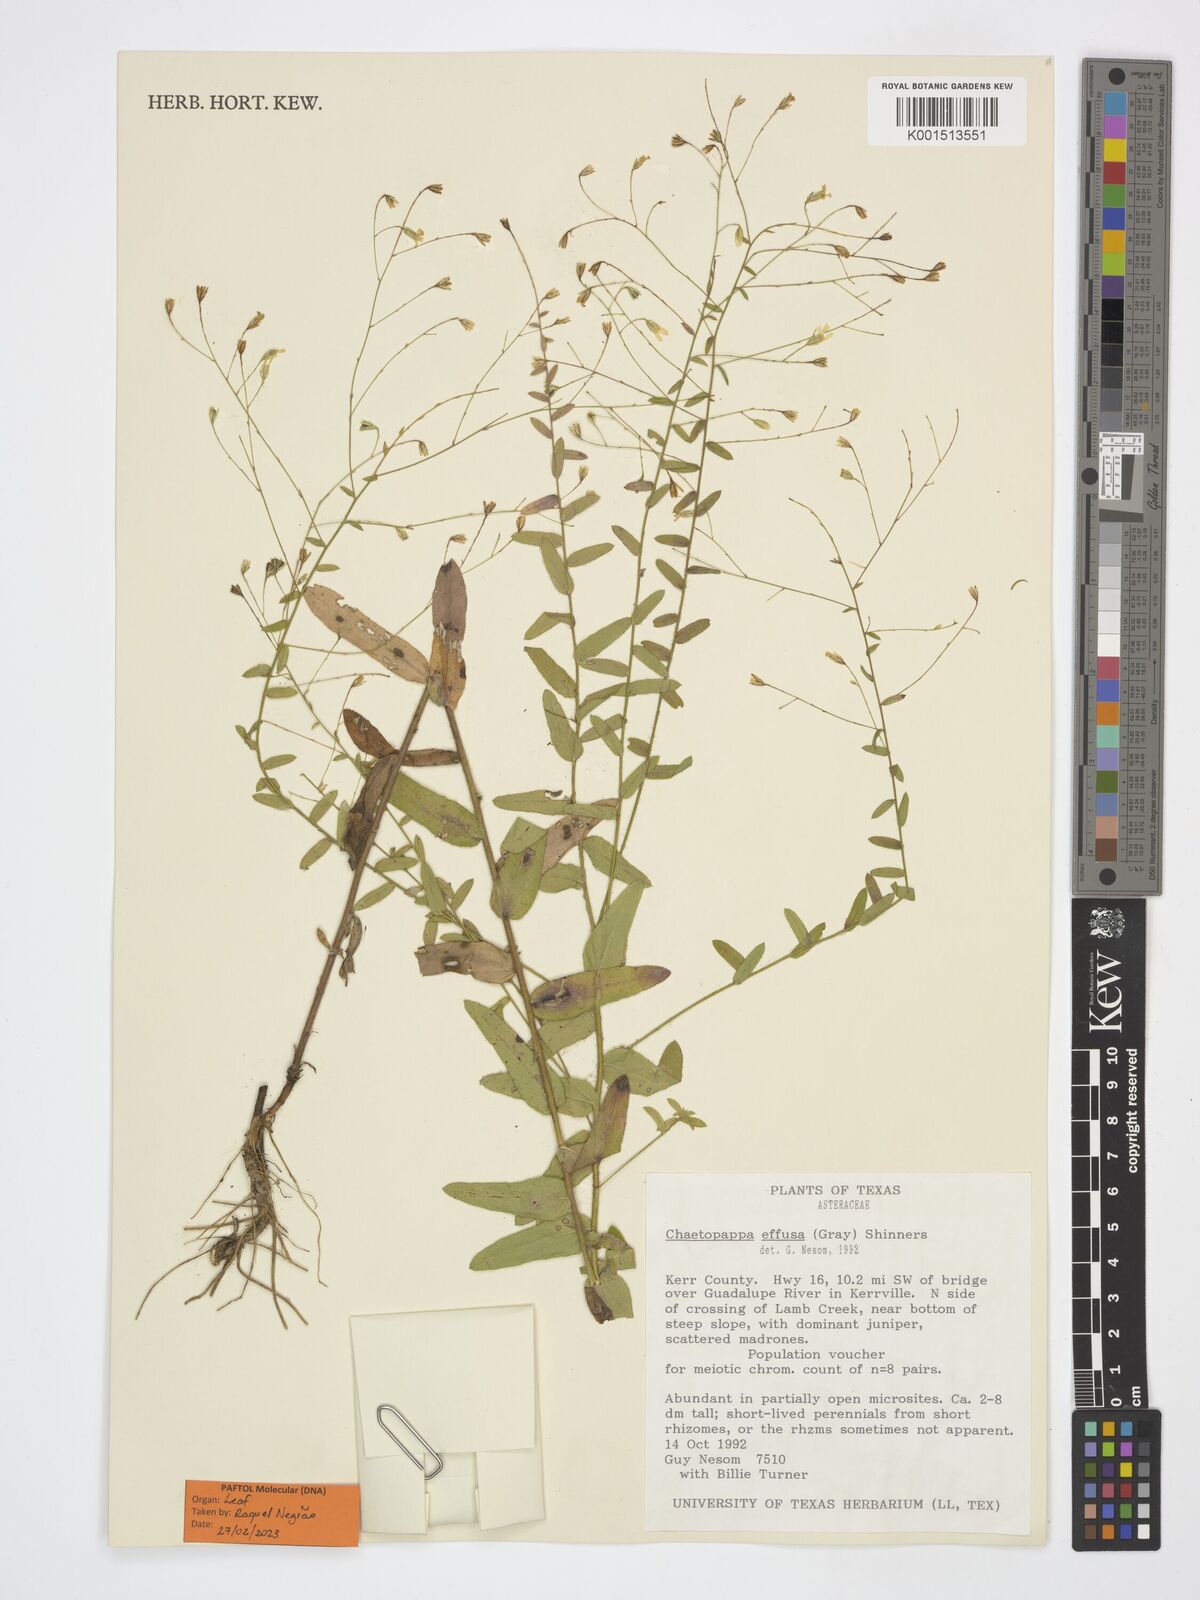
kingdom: Plantae
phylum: Tracheophyta
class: Magnoliopsida
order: Asterales
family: Asteraceae
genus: Chaetopappa
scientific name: Chaetopappa effusa
